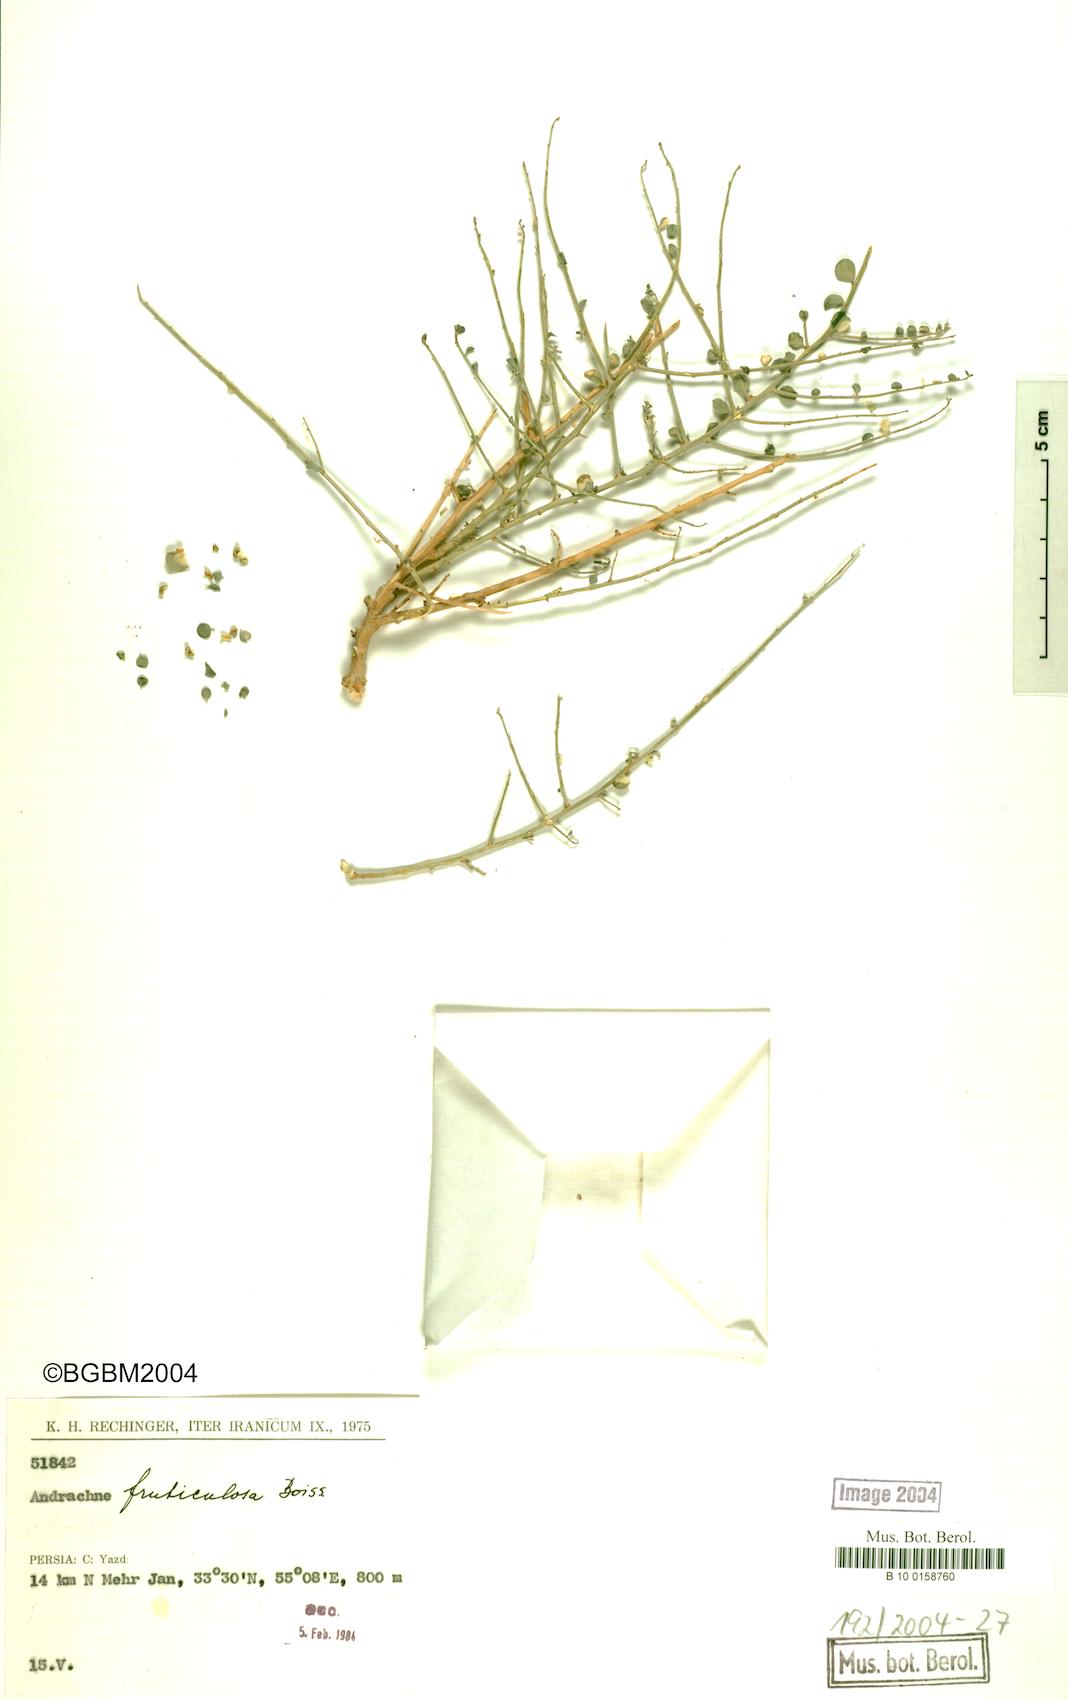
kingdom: Plantae
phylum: Tracheophyta
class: Magnoliopsida
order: Malpighiales
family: Phyllanthaceae
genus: Andrachne
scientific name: Andrachne fruticulosa
